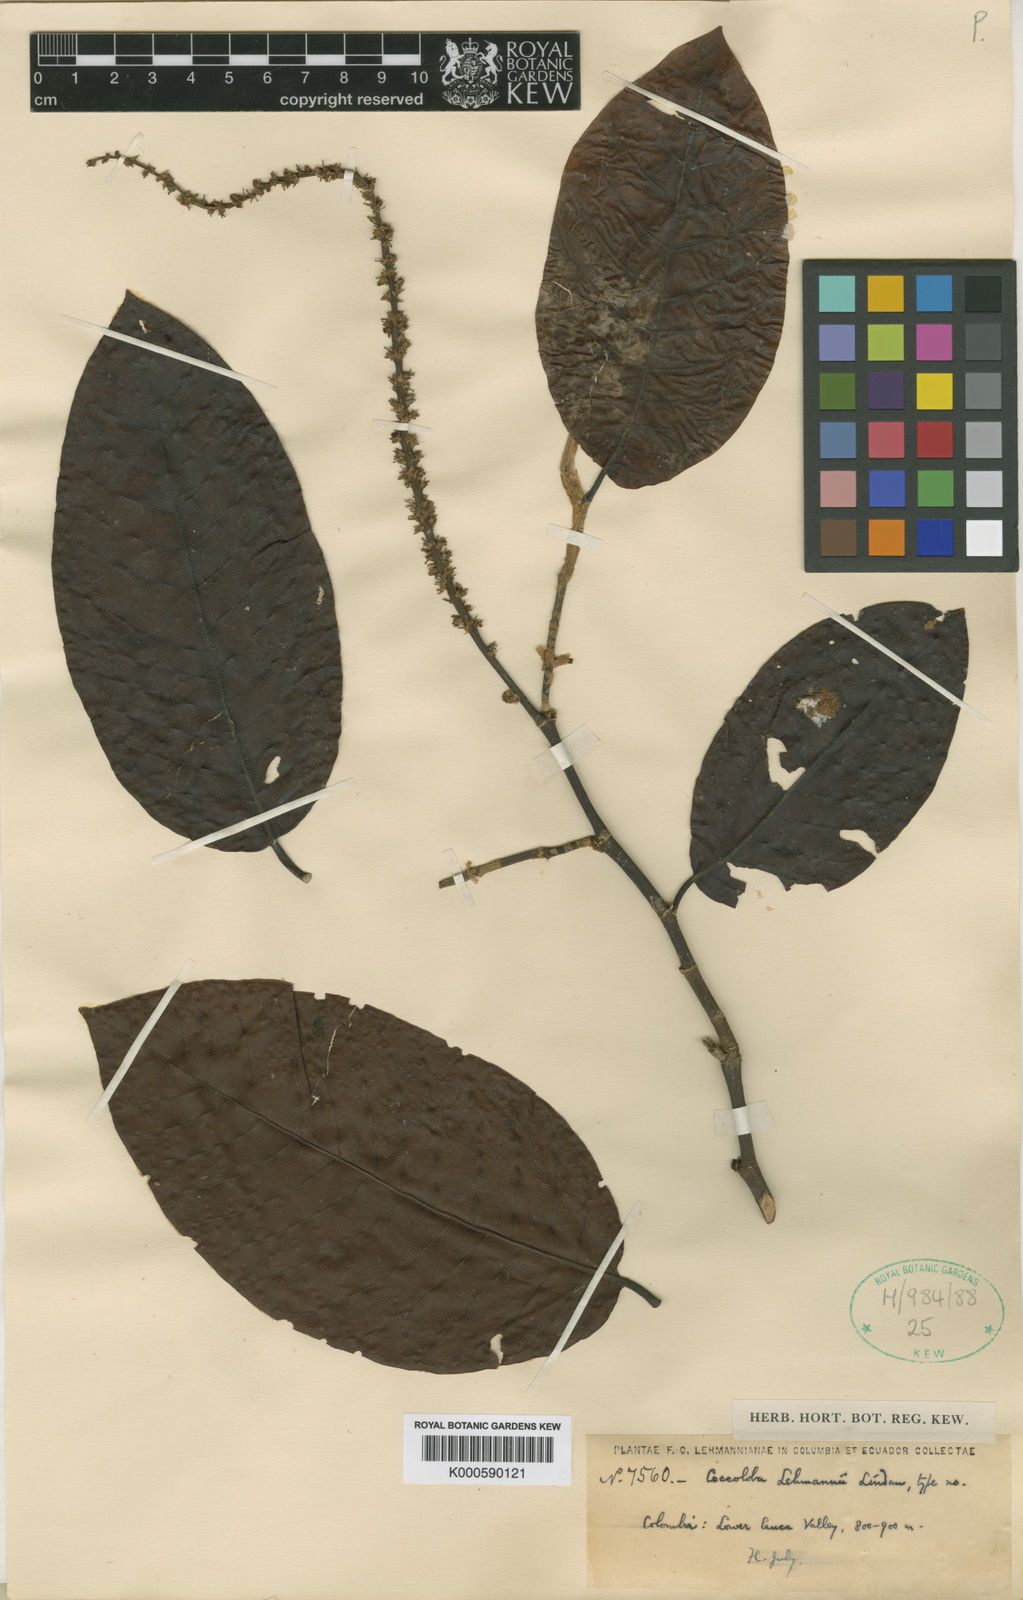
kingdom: Plantae
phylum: Tracheophyta
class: Magnoliopsida
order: Caryophyllales
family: Polygonaceae
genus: Coccoloba
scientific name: Coccoloba lehmannii
